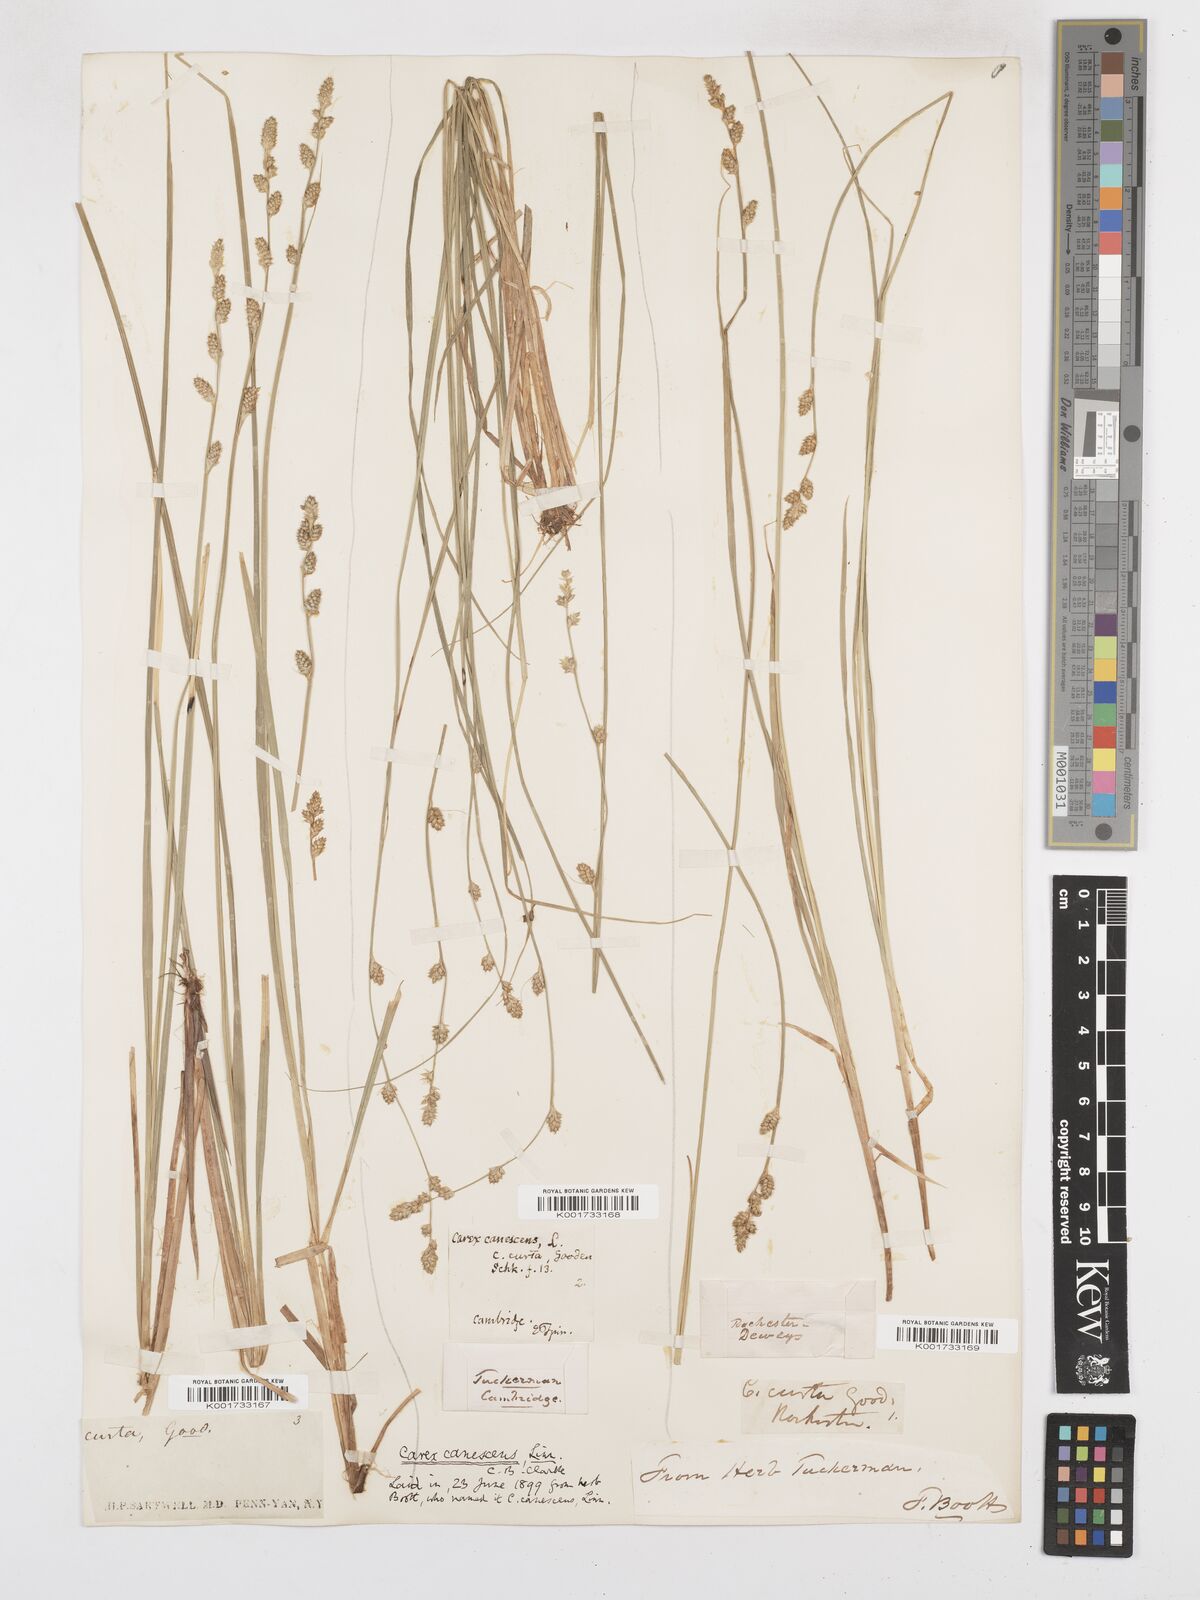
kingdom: Plantae
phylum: Tracheophyta
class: Liliopsida
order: Poales
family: Cyperaceae
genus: Carex
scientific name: Carex curta
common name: White sedge
